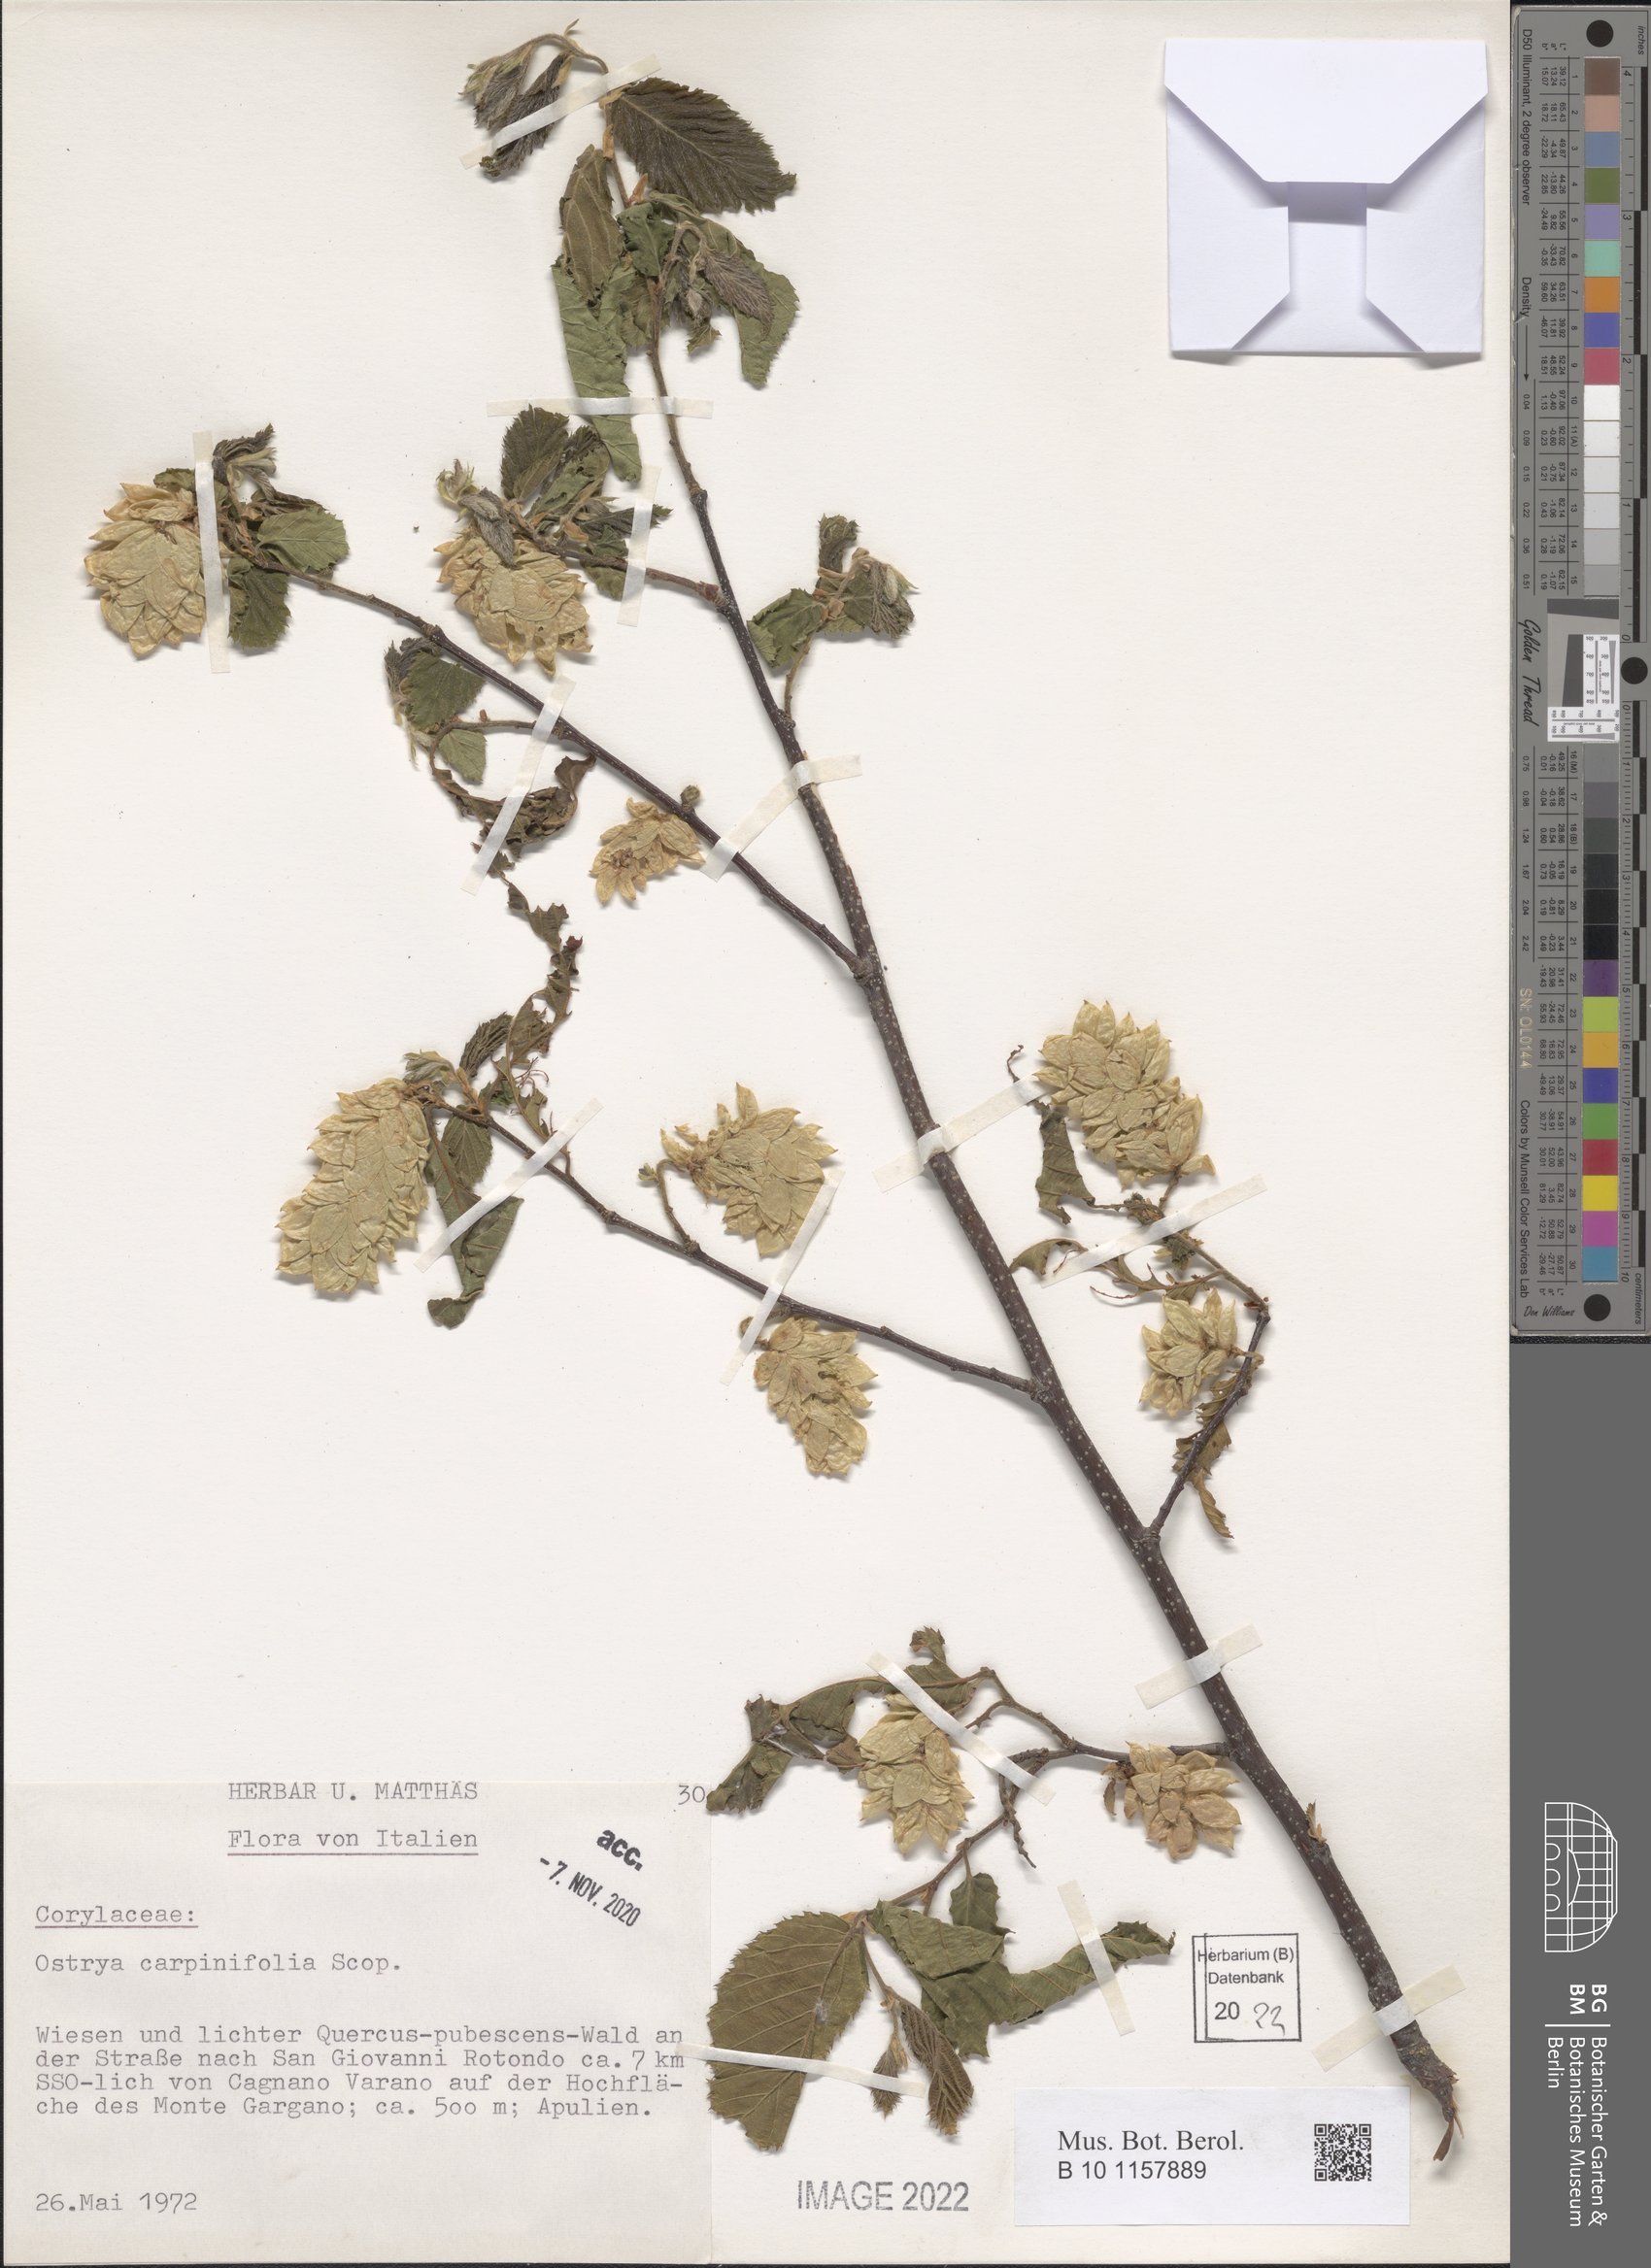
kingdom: Plantae
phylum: Tracheophyta
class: Magnoliopsida
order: Fagales
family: Betulaceae
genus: Ostrya
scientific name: Ostrya carpinifolia
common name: European hop-hornbeam
